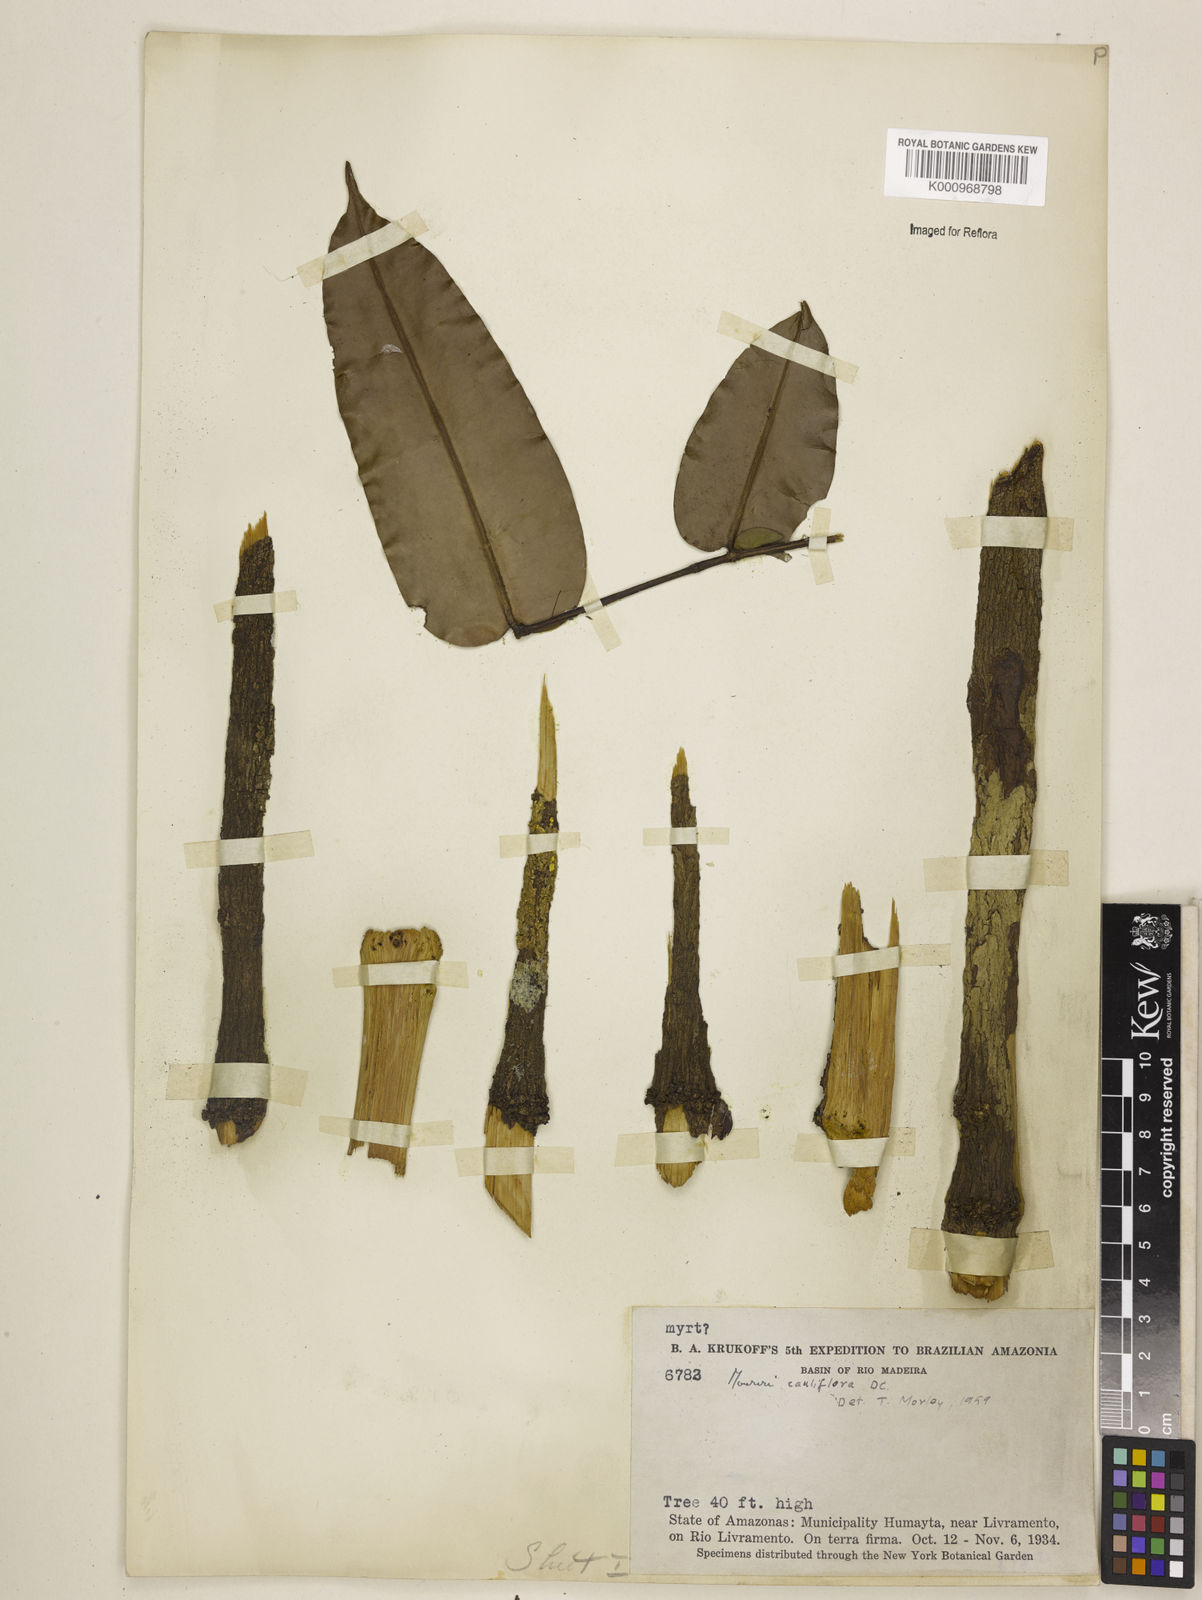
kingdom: Plantae
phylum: Tracheophyta
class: Magnoliopsida
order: Myrtales
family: Melastomataceae
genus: Mouriri
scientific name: Mouriri cauliflora
